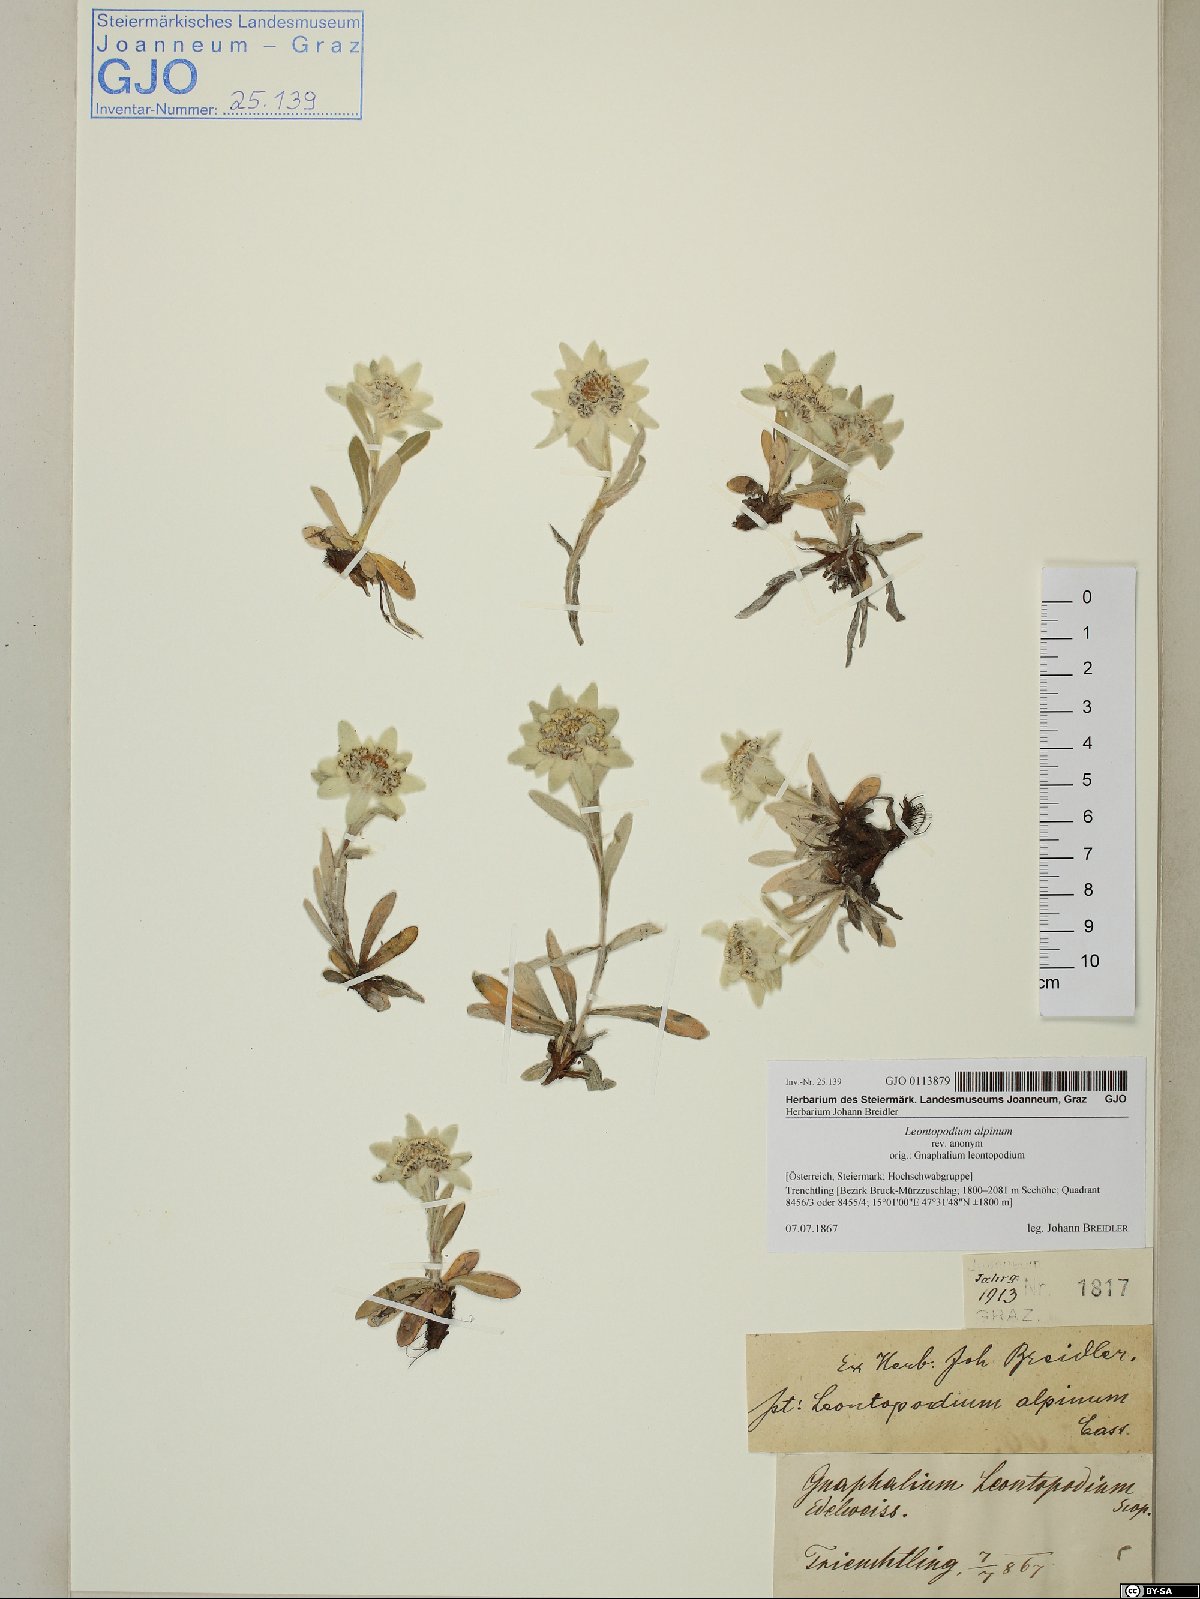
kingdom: Plantae
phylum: Tracheophyta
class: Magnoliopsida
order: Asterales
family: Asteraceae
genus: Leontopodium
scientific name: Leontopodium nivale
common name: Edelweiss
